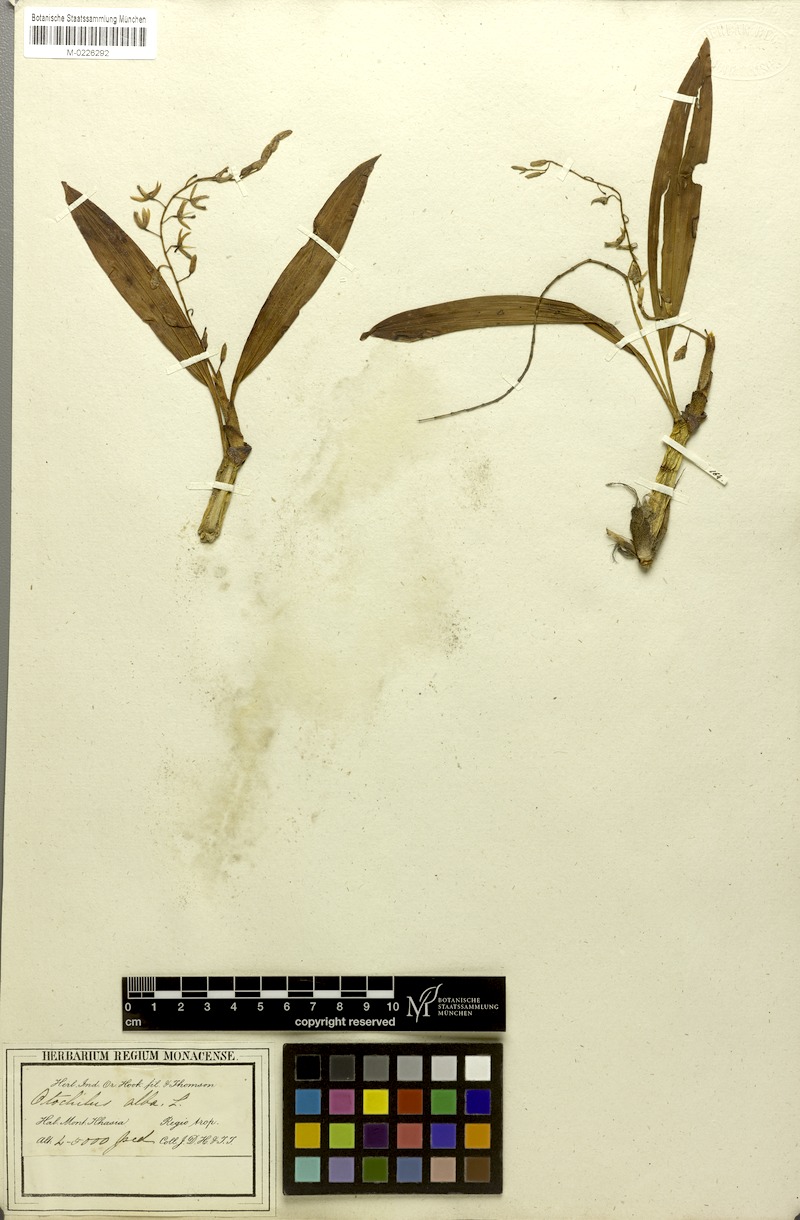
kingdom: Plantae
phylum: Tracheophyta
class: Liliopsida
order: Asparagales
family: Orchidaceae
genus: Coelogyne
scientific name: Coelogyne alba
